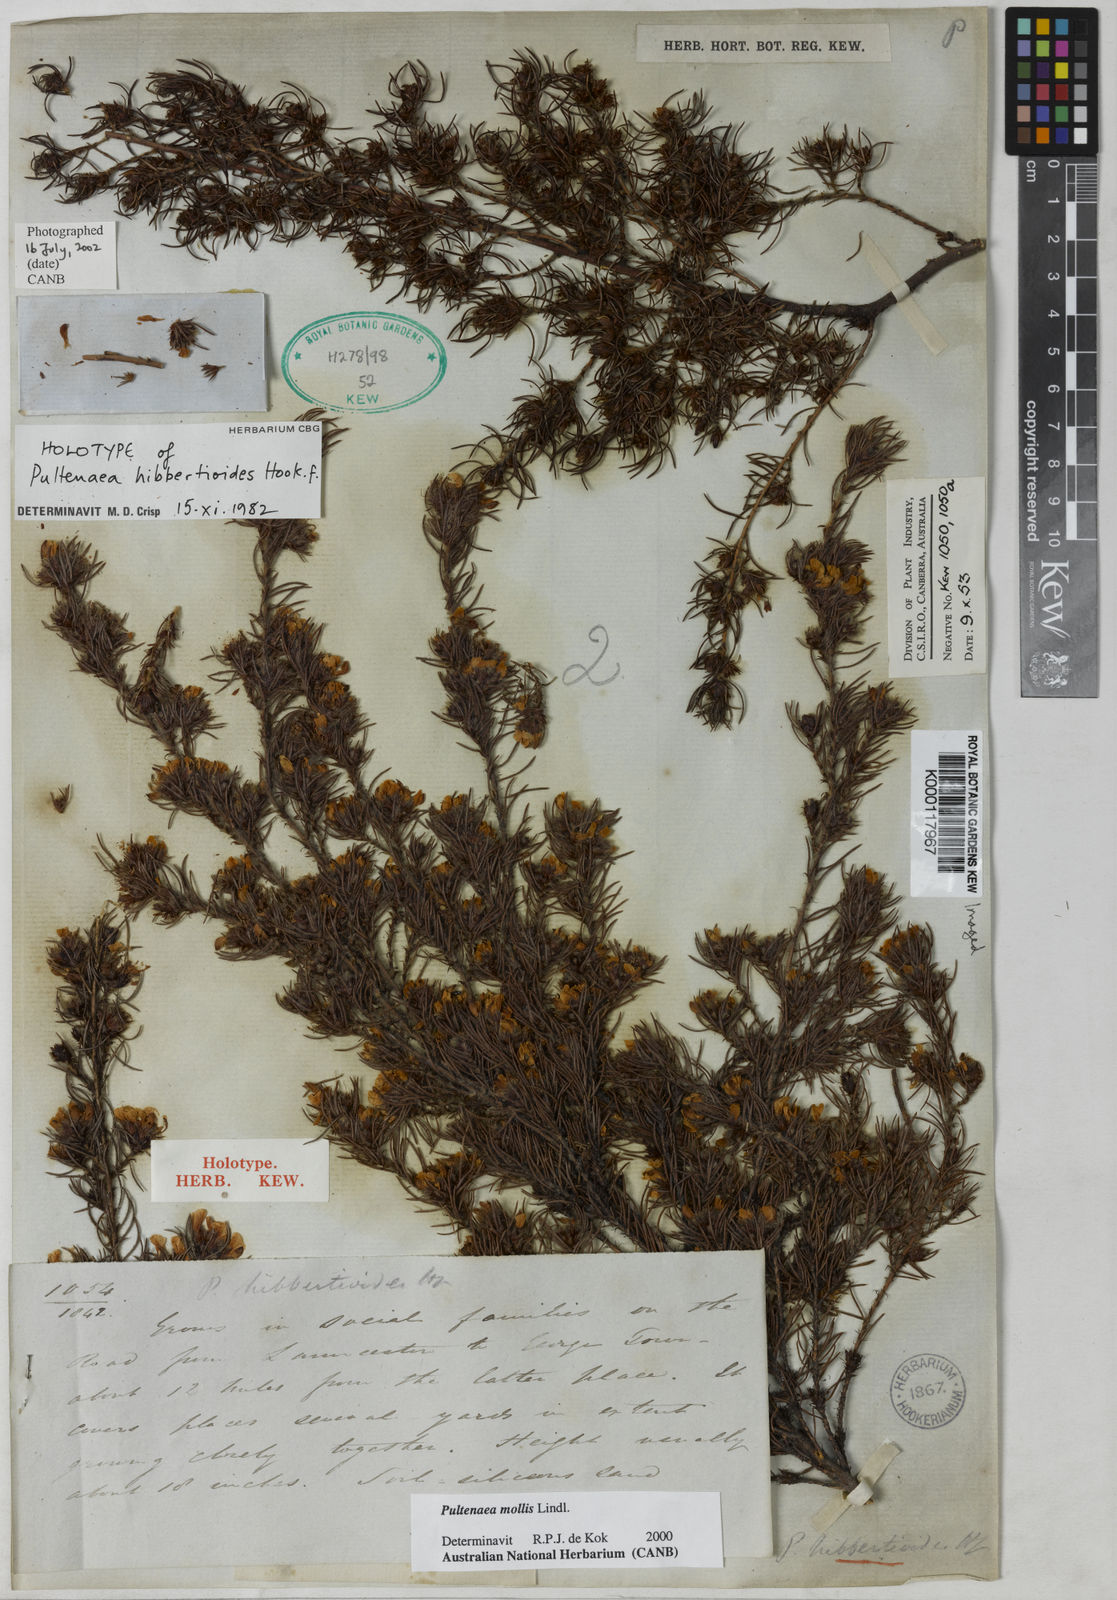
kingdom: Plantae
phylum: Tracheophyta
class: Magnoliopsida
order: Fabales
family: Fabaceae
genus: Pultenaea
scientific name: Pultenaea mollis
